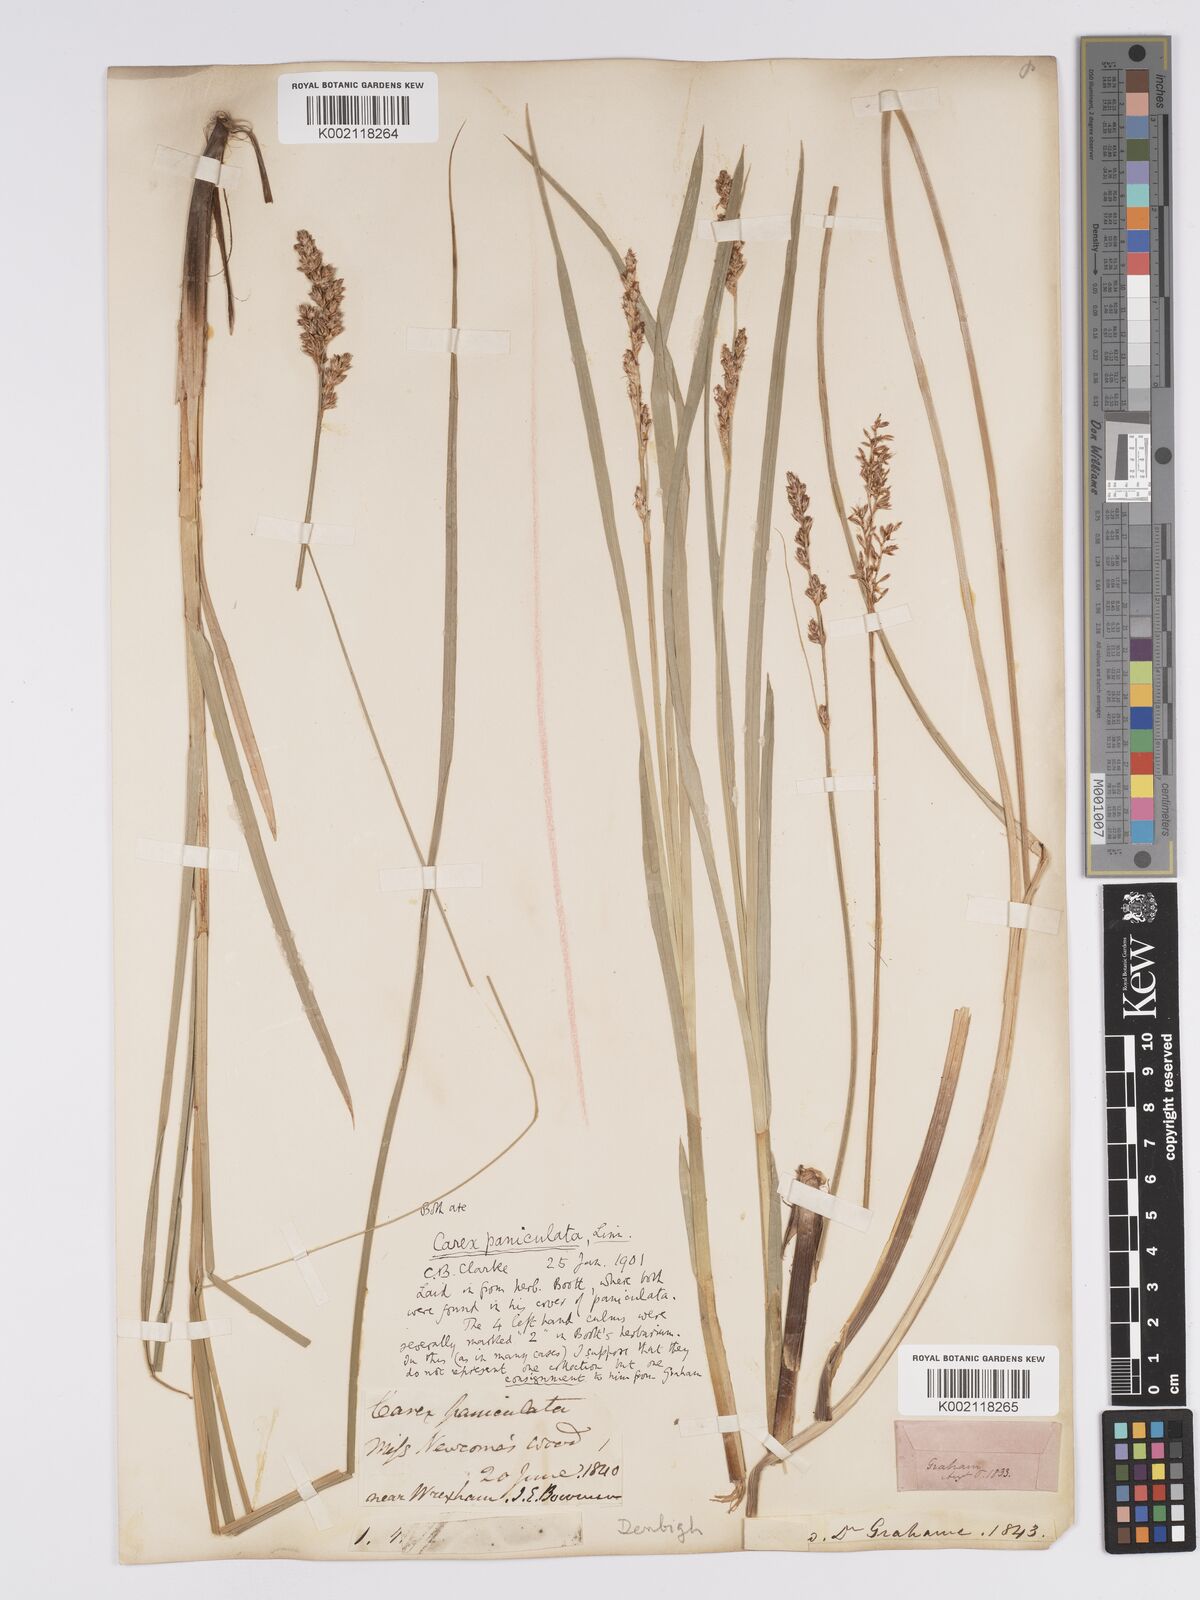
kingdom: Plantae
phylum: Tracheophyta
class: Liliopsida
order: Poales
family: Cyperaceae
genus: Carex
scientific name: Carex paniculata
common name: Greater tussock-sedge
